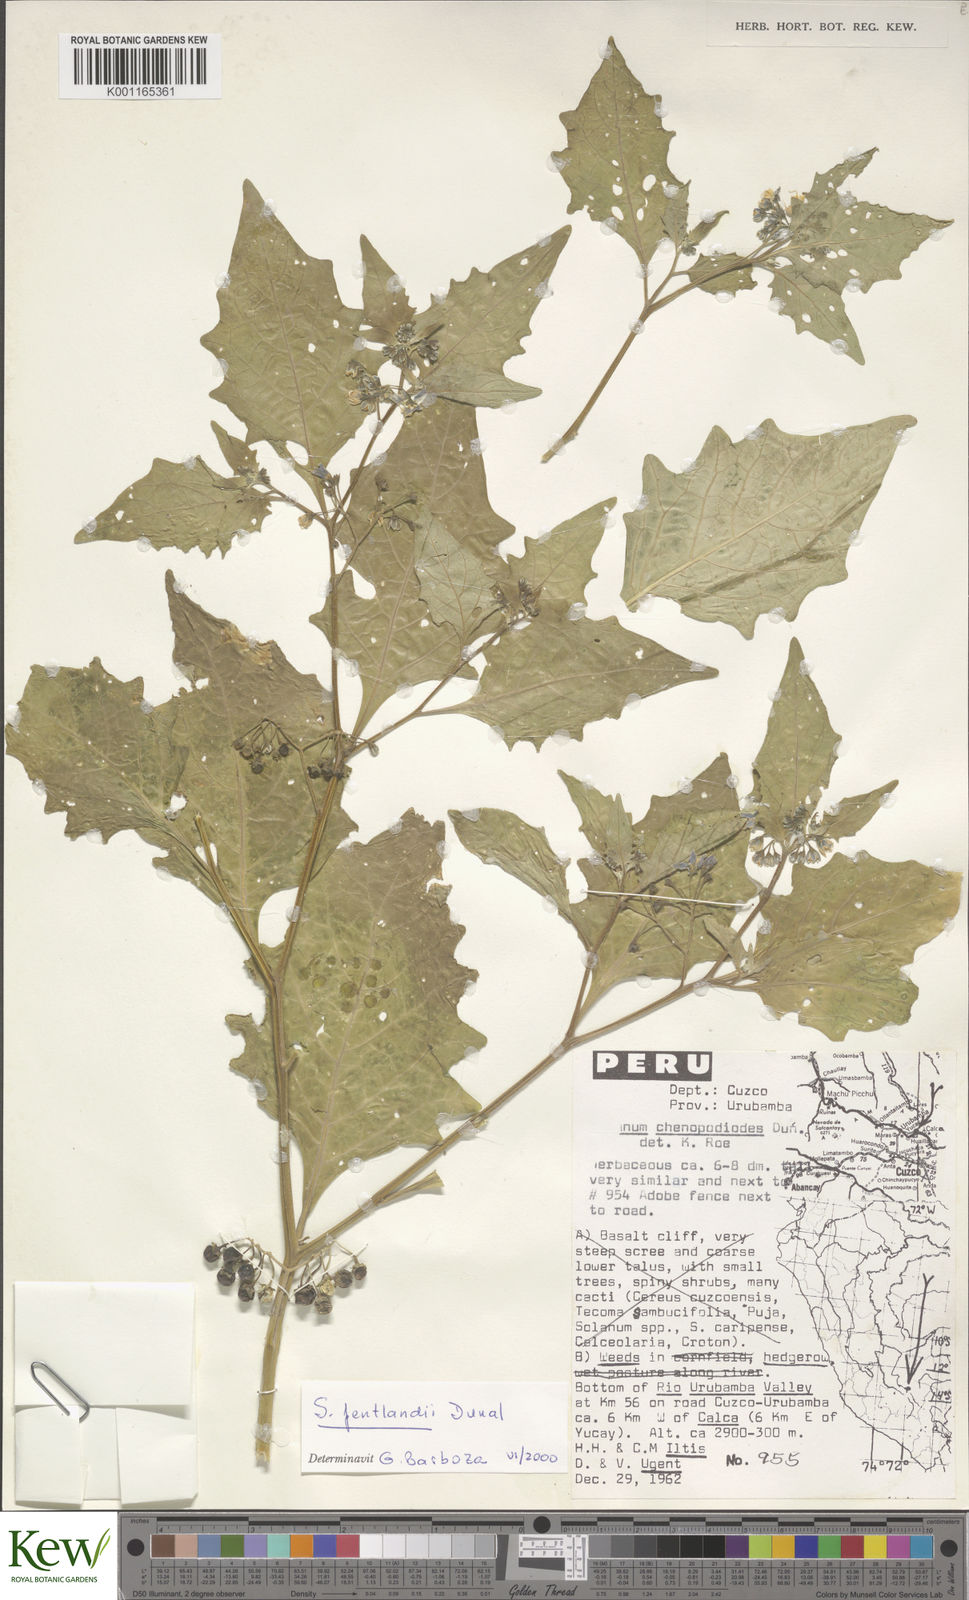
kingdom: Plantae
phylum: Tracheophyta
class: Magnoliopsida
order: Solanales
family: Solanaceae
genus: Solanum
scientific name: Solanum pentlandii
